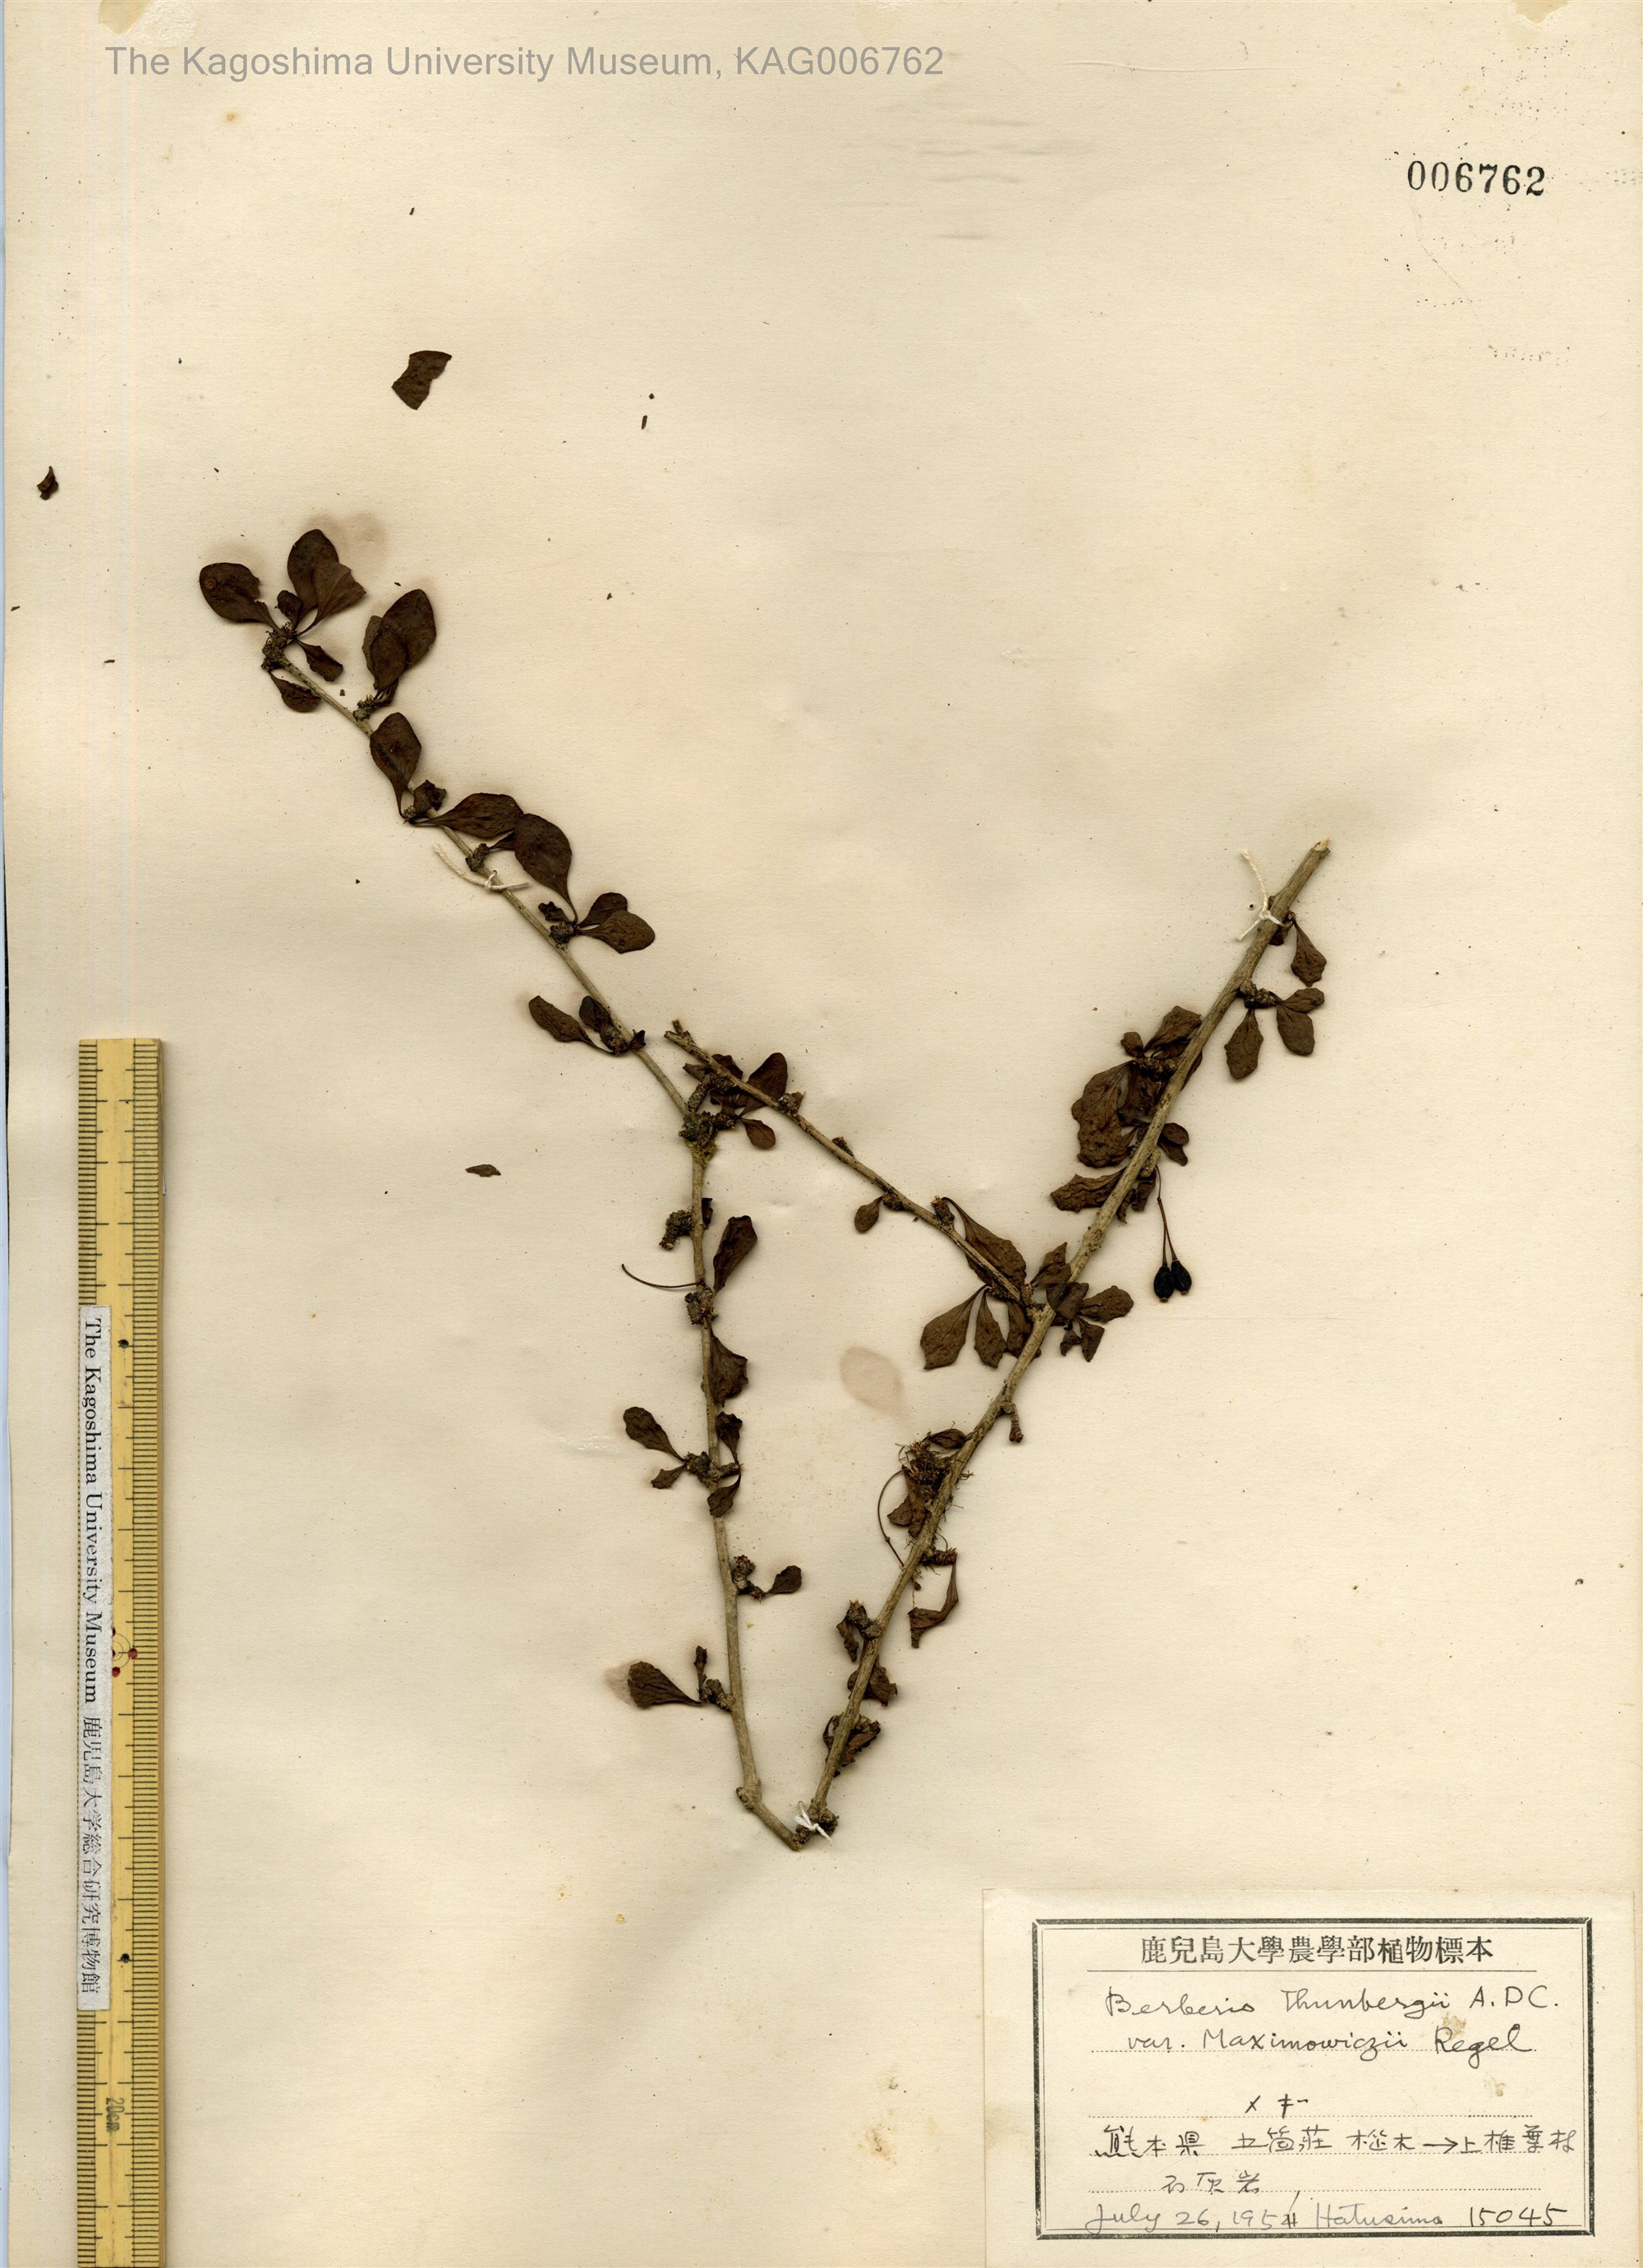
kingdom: Plantae
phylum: Tracheophyta
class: Magnoliopsida
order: Ranunculales
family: Berberidaceae
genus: Berberis
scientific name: Berberis thunbergii
